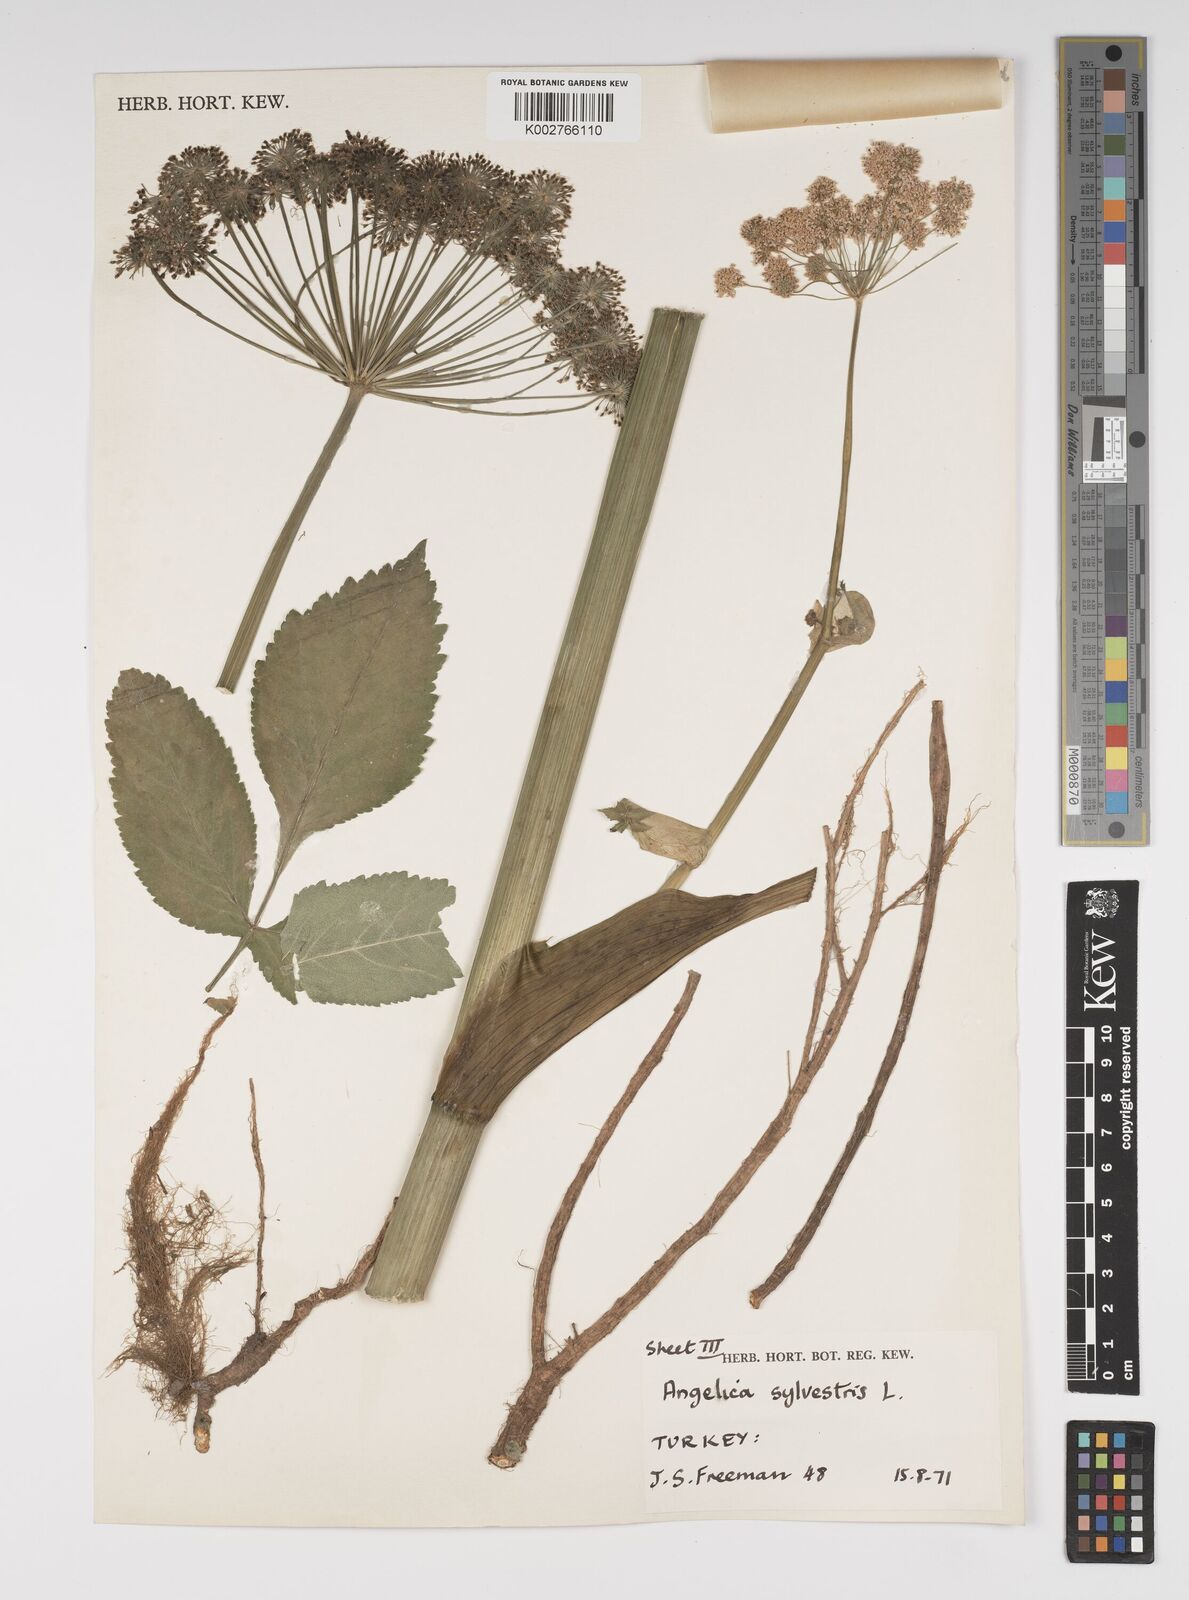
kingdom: Plantae
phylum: Tracheophyta
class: Magnoliopsida
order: Apiales
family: Apiaceae
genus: Angelica
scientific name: Angelica sylvestris
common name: Wild angelica
